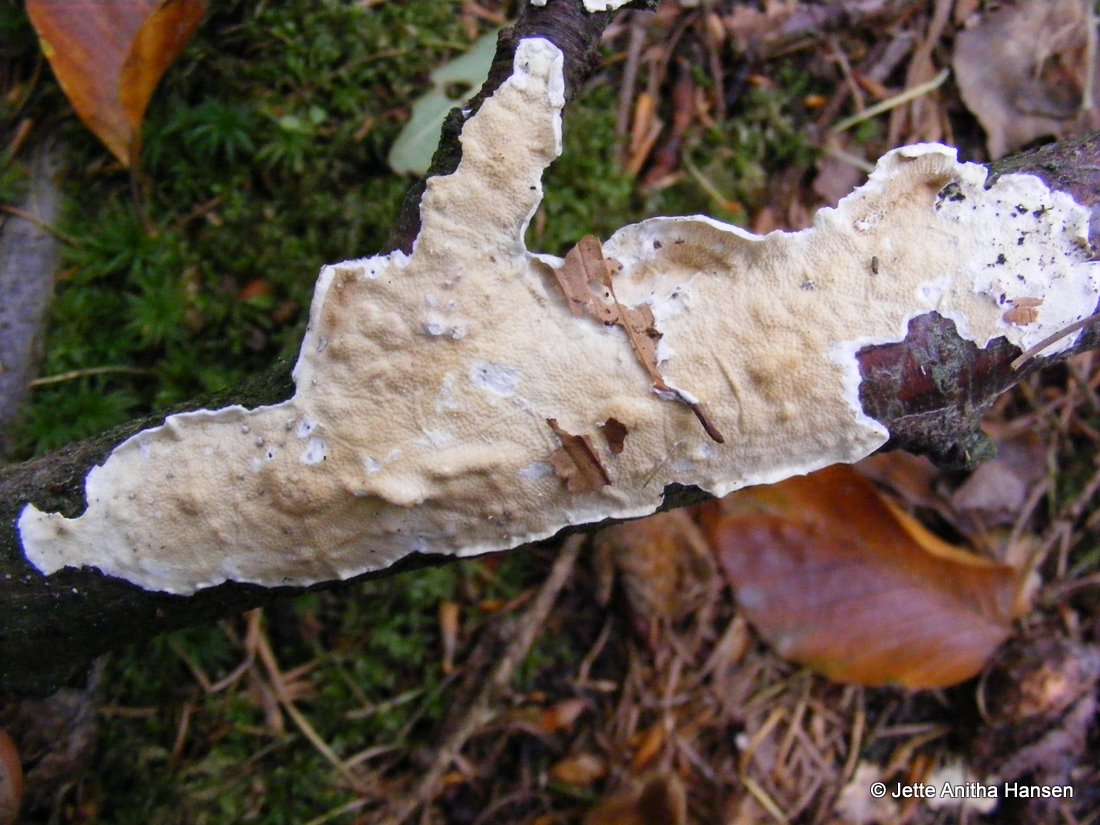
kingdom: Fungi
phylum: Basidiomycota
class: Agaricomycetes
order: Polyporales
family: Irpicaceae
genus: Byssomerulius
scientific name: Byssomerulius corium
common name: læder-åresvamp
